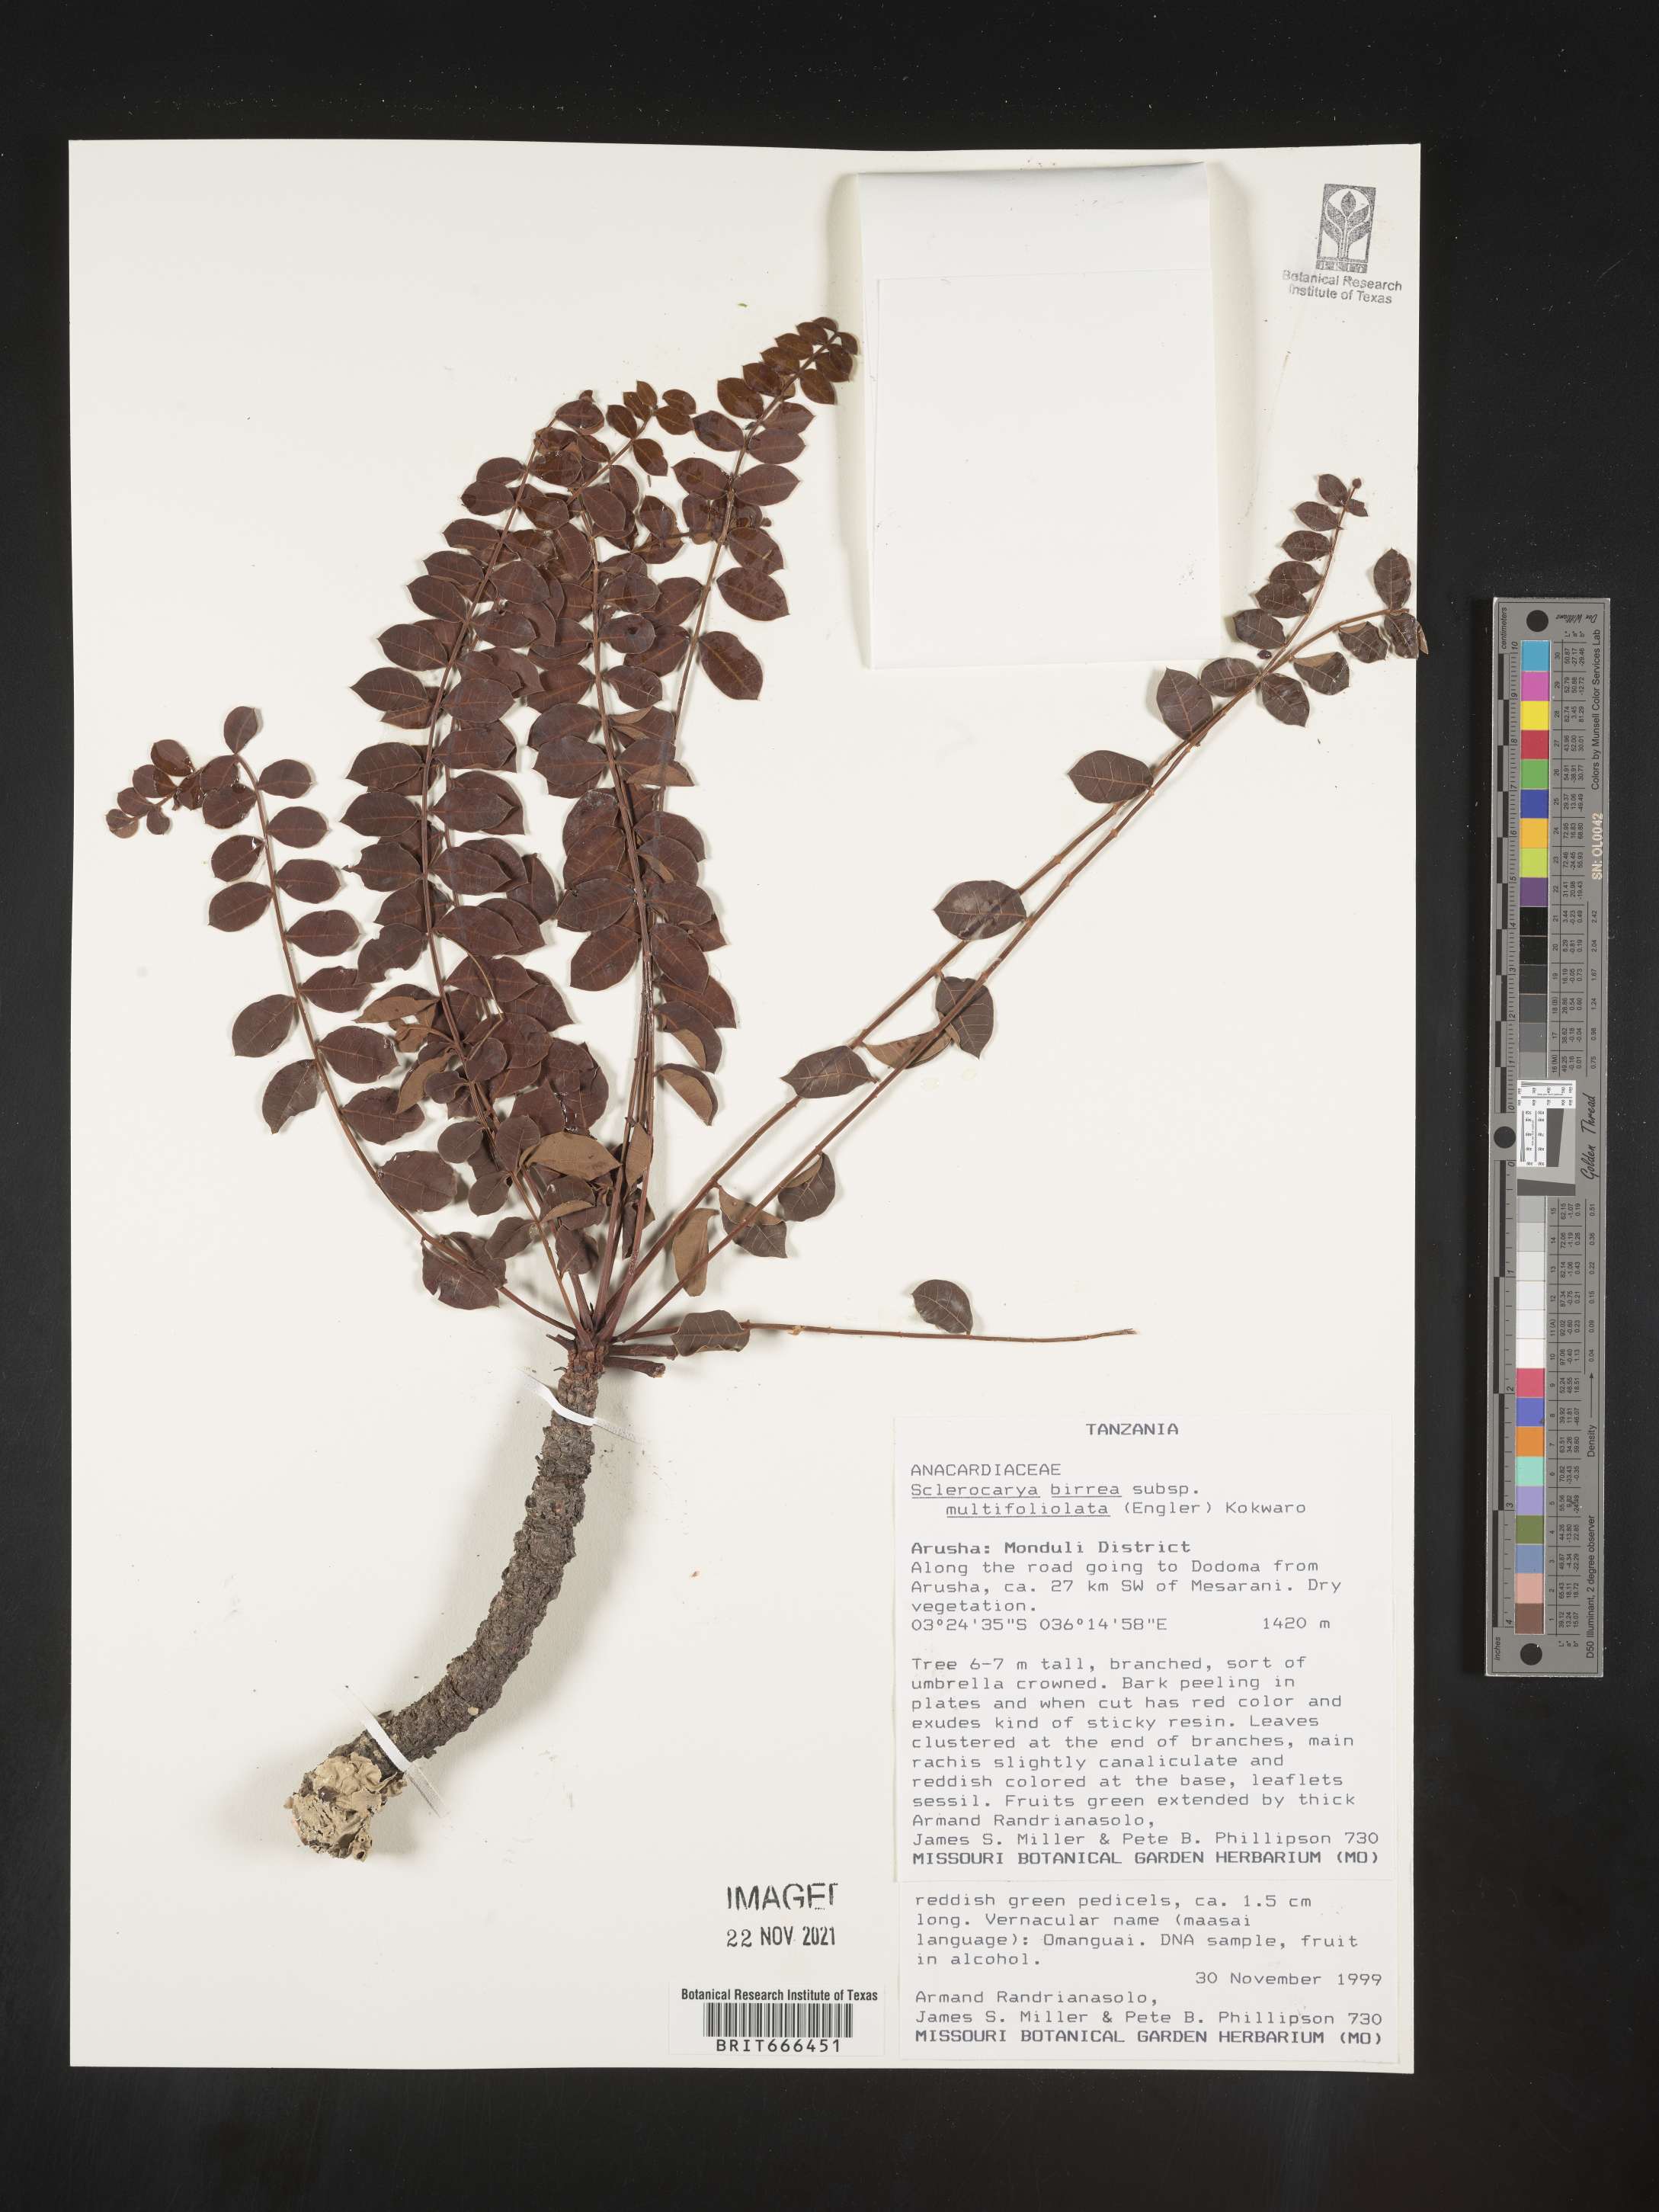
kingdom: Plantae
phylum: Tracheophyta
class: Magnoliopsida
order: Sapindales
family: Anacardiaceae
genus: Sclerocarya
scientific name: Sclerocarya birrea
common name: Marula
